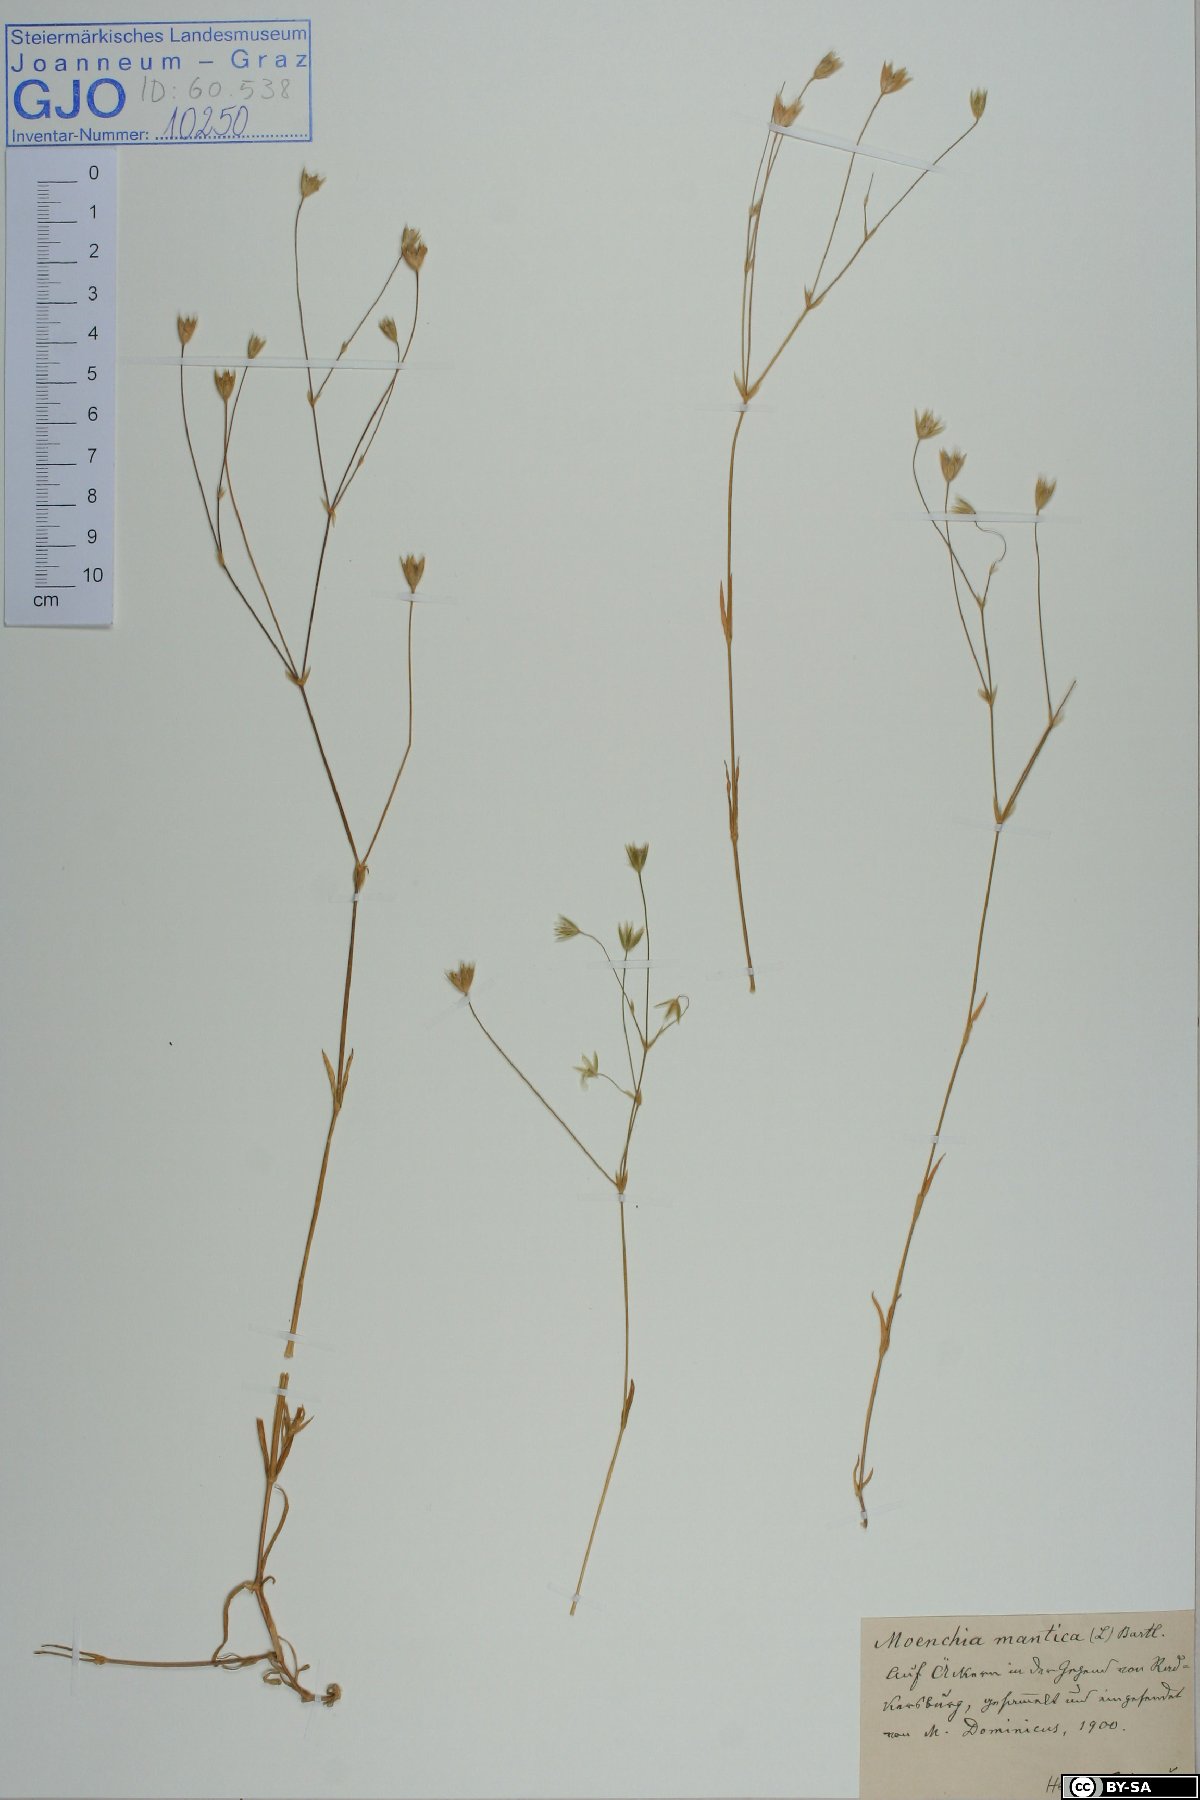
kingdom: Plantae
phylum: Tracheophyta
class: Magnoliopsida
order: Caryophyllales
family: Caryophyllaceae
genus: Moenchia
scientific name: Moenchia mantica
